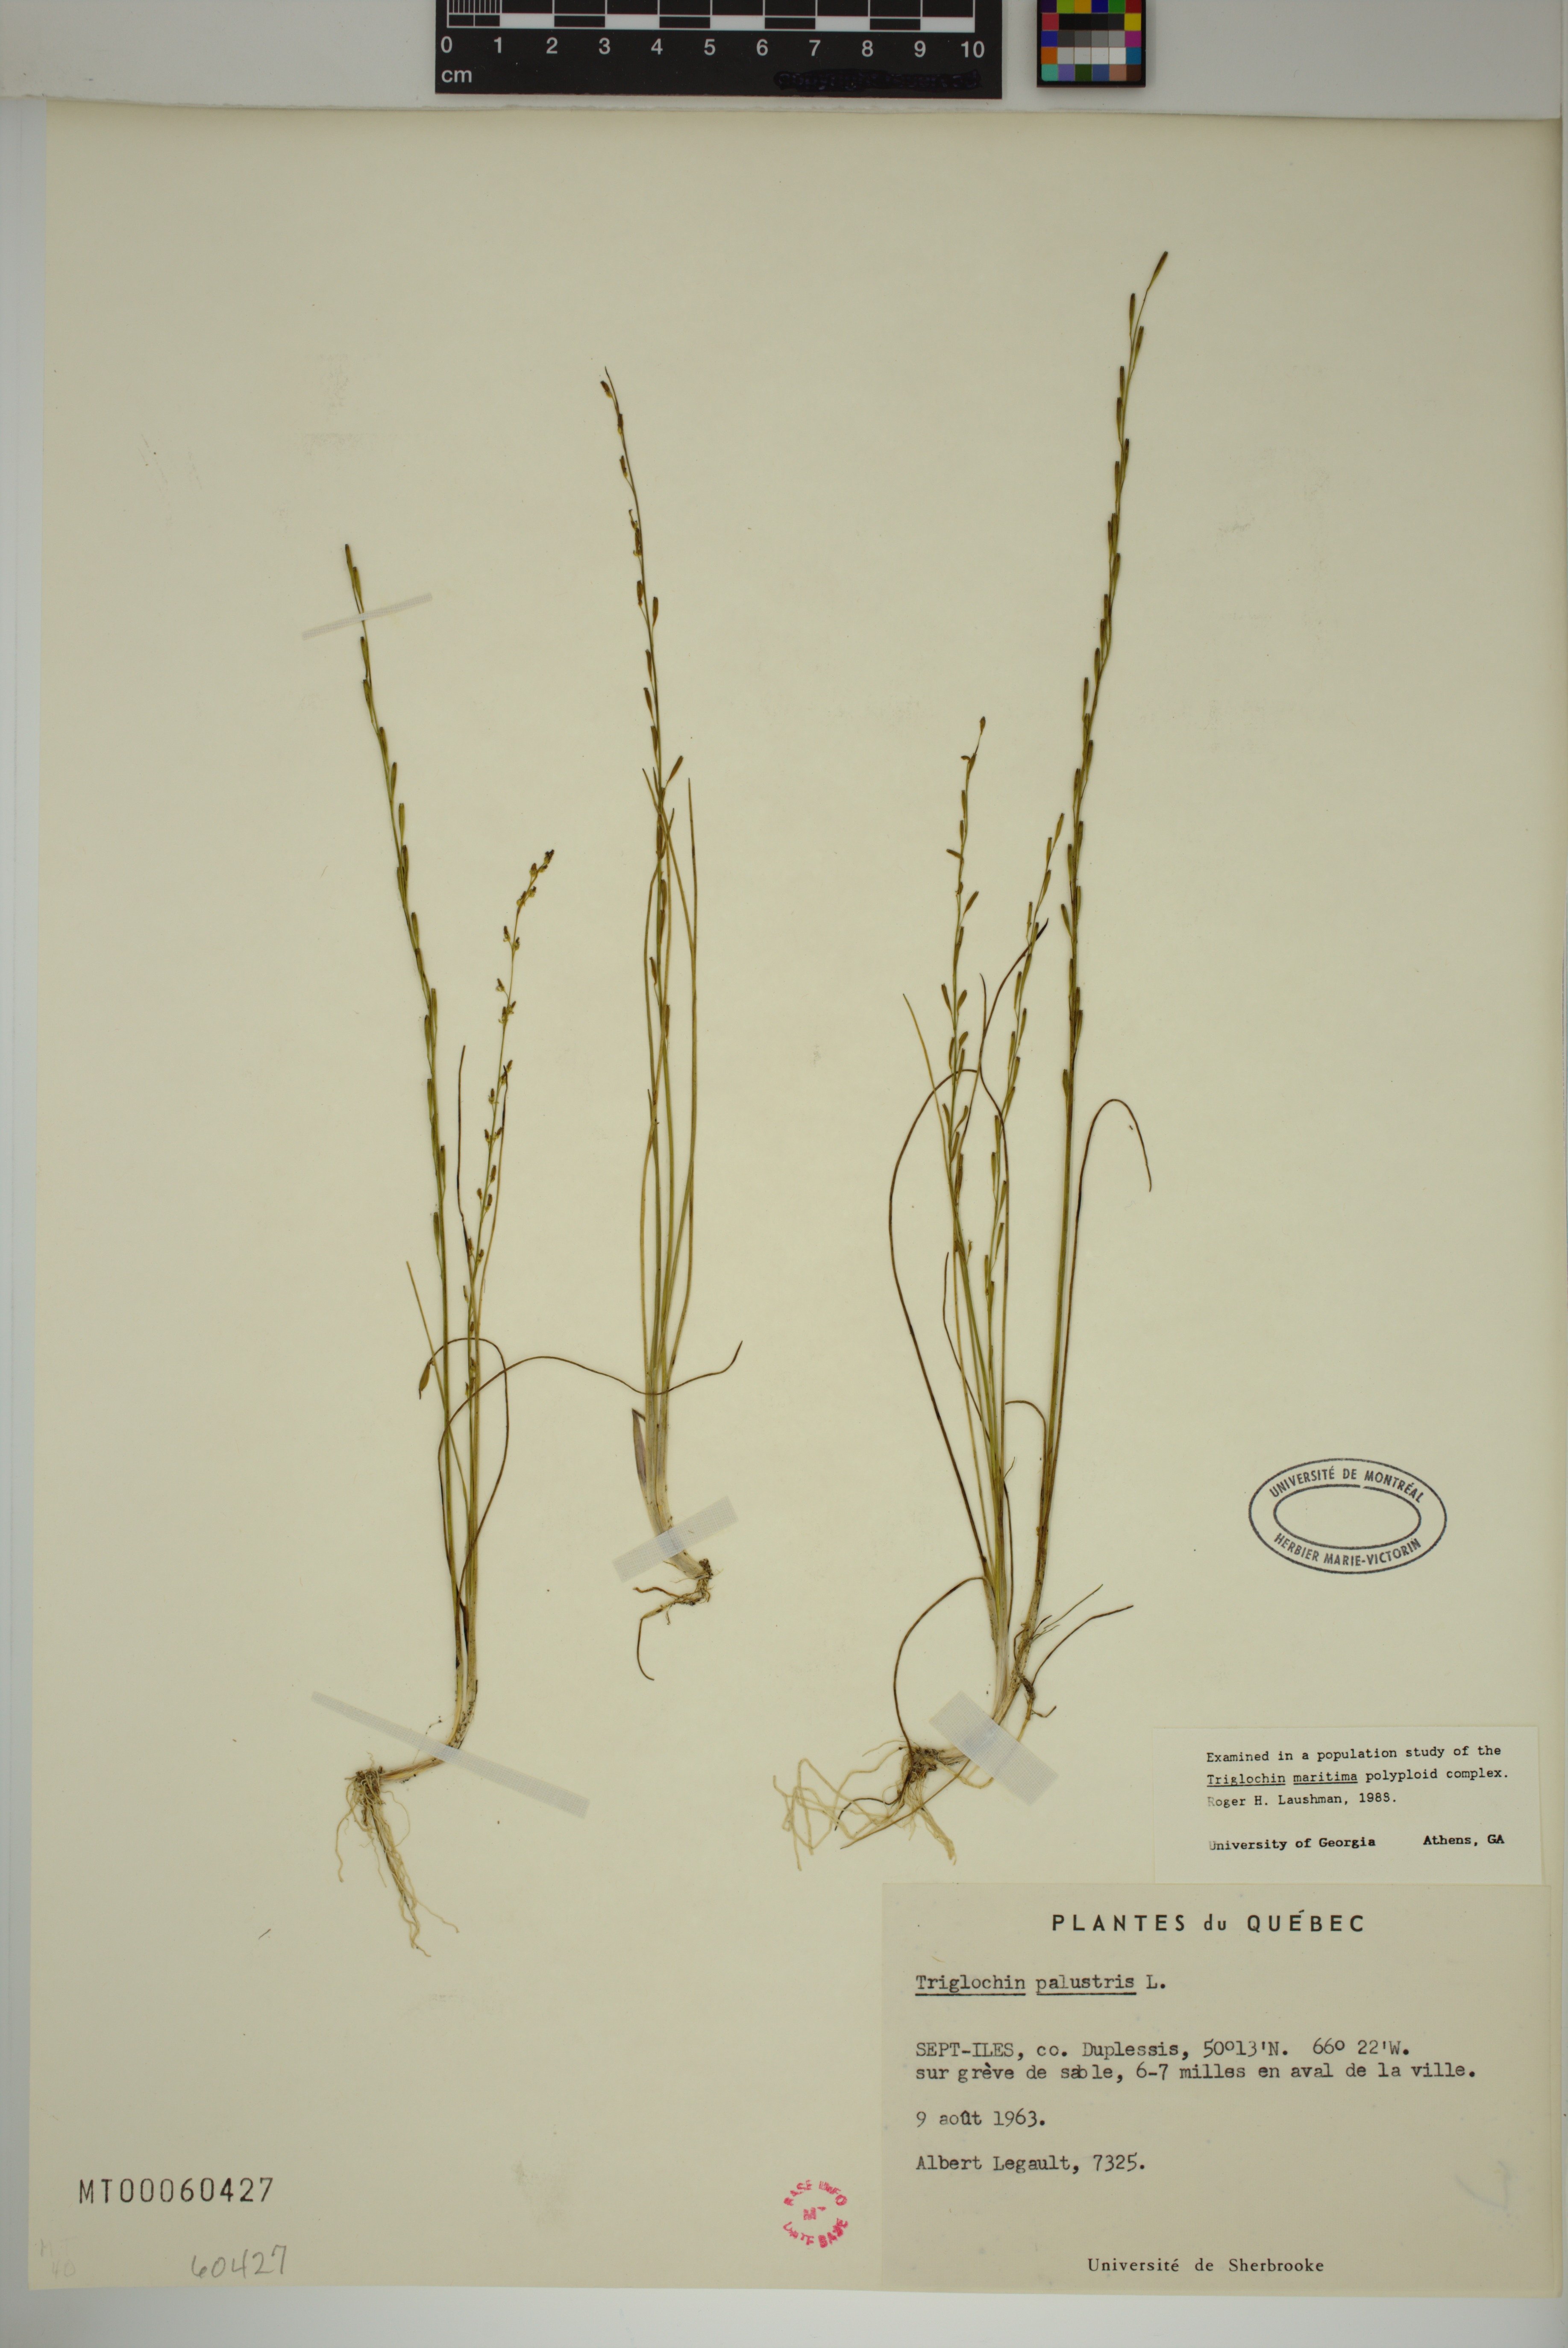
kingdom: Plantae
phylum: Tracheophyta
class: Liliopsida
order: Alismatales
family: Juncaginaceae
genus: Triglochin
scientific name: Triglochin palustris
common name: Marsh arrowgrass
